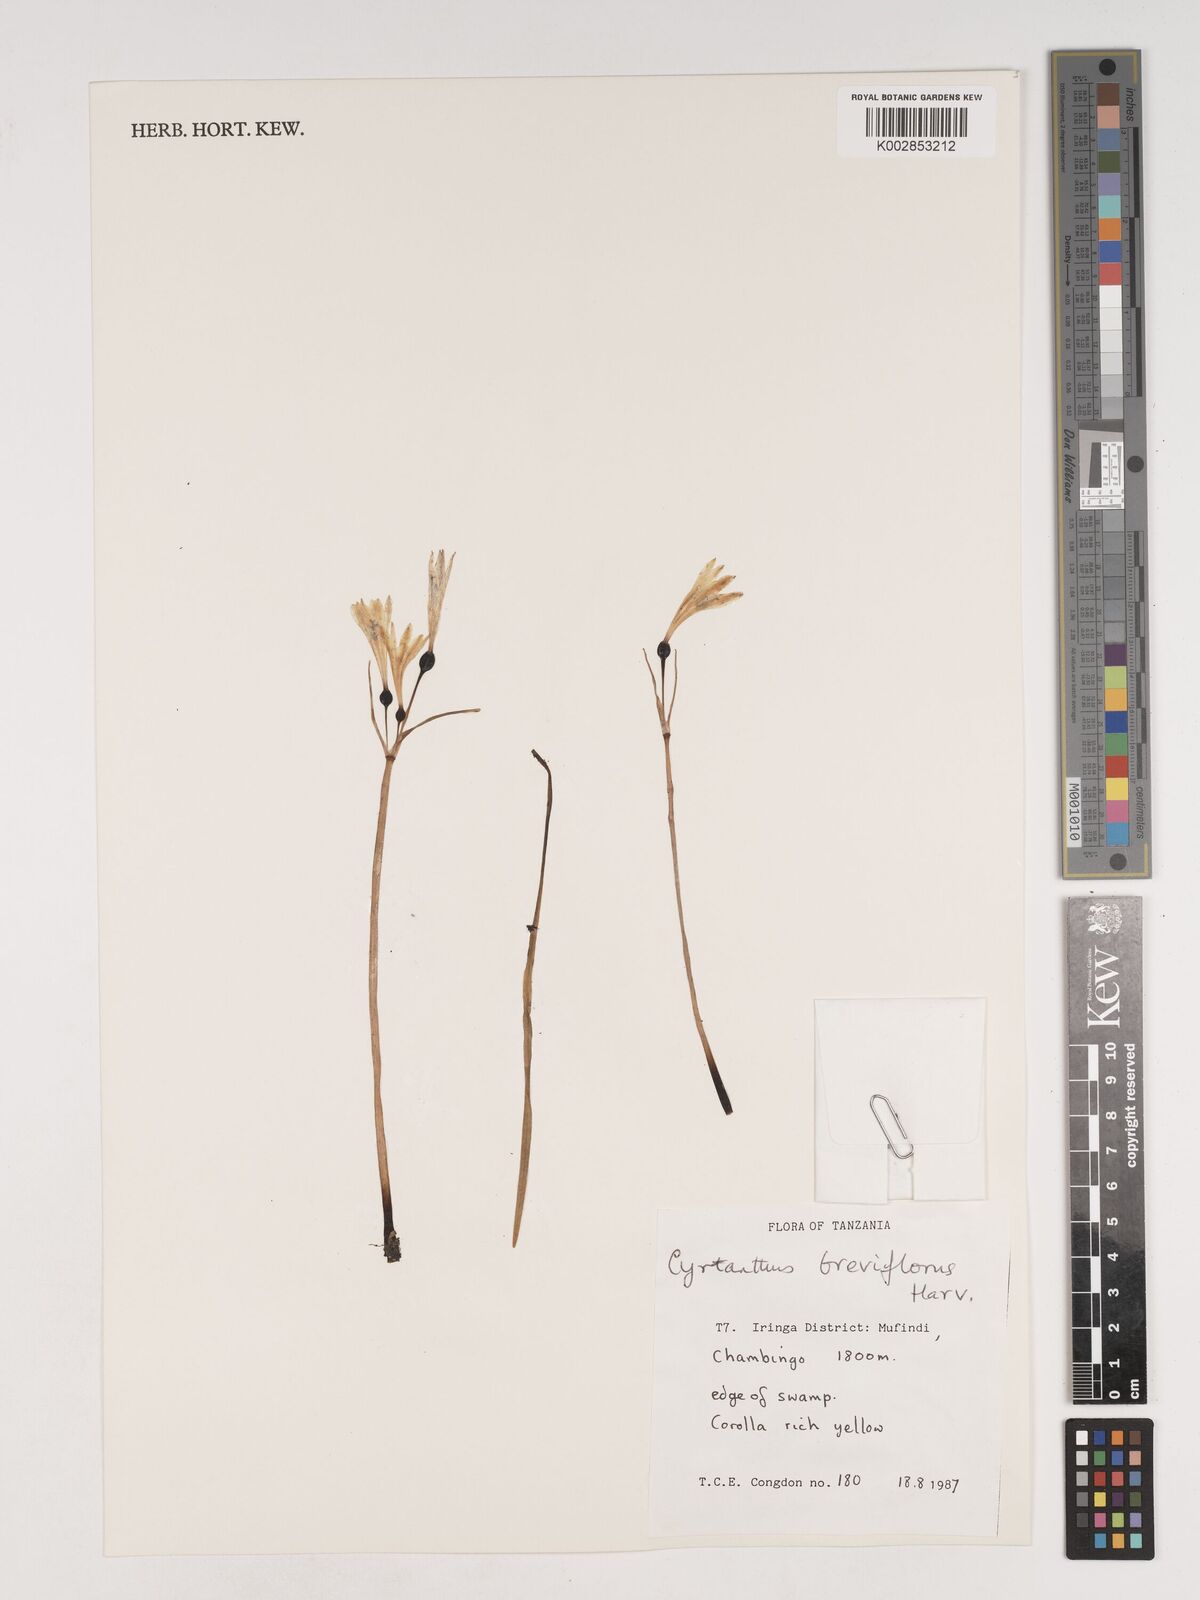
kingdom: Plantae
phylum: Tracheophyta
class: Liliopsida
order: Asparagales
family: Amaryllidaceae
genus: Cyrtanthus
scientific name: Cyrtanthus breviflorus
